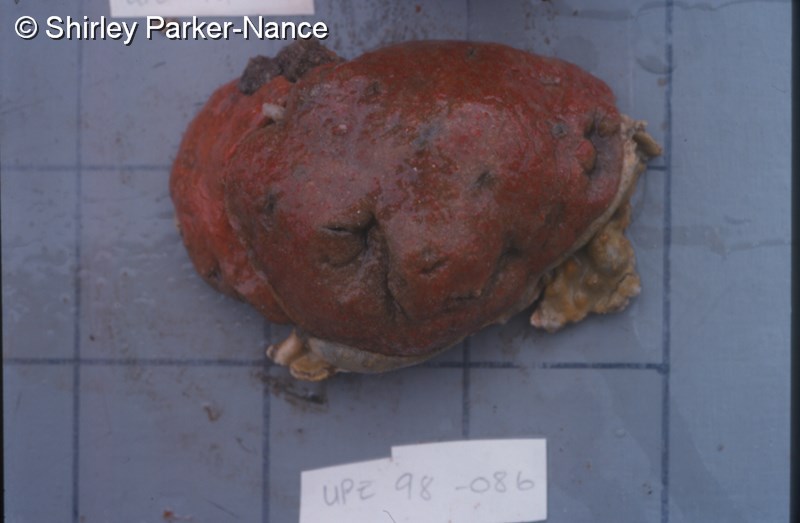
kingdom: Animalia
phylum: Chordata
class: Ascidiacea
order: Aplousobranchia
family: Polyclinidae
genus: Aplidium
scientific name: Aplidium flavolineatum
